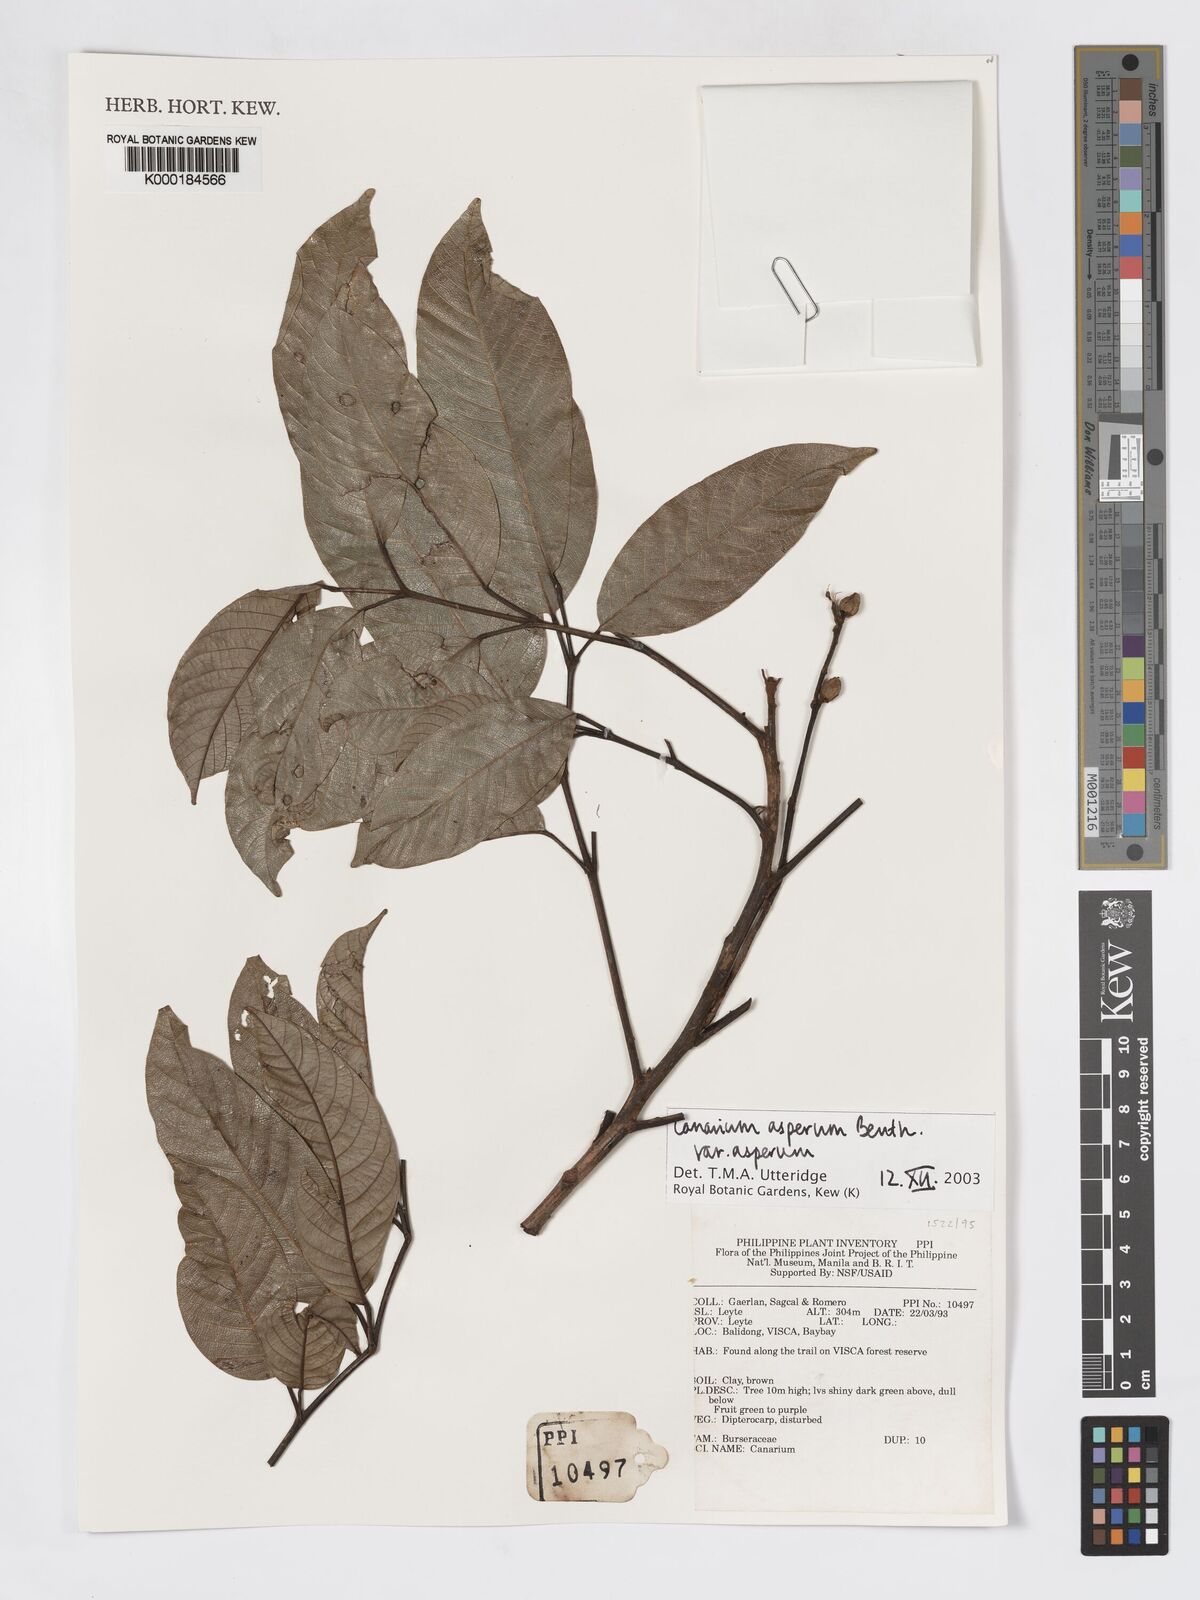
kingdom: Plantae
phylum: Tracheophyta
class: Magnoliopsida
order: Sapindales
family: Burseraceae
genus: Canarium
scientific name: Canarium asperum
